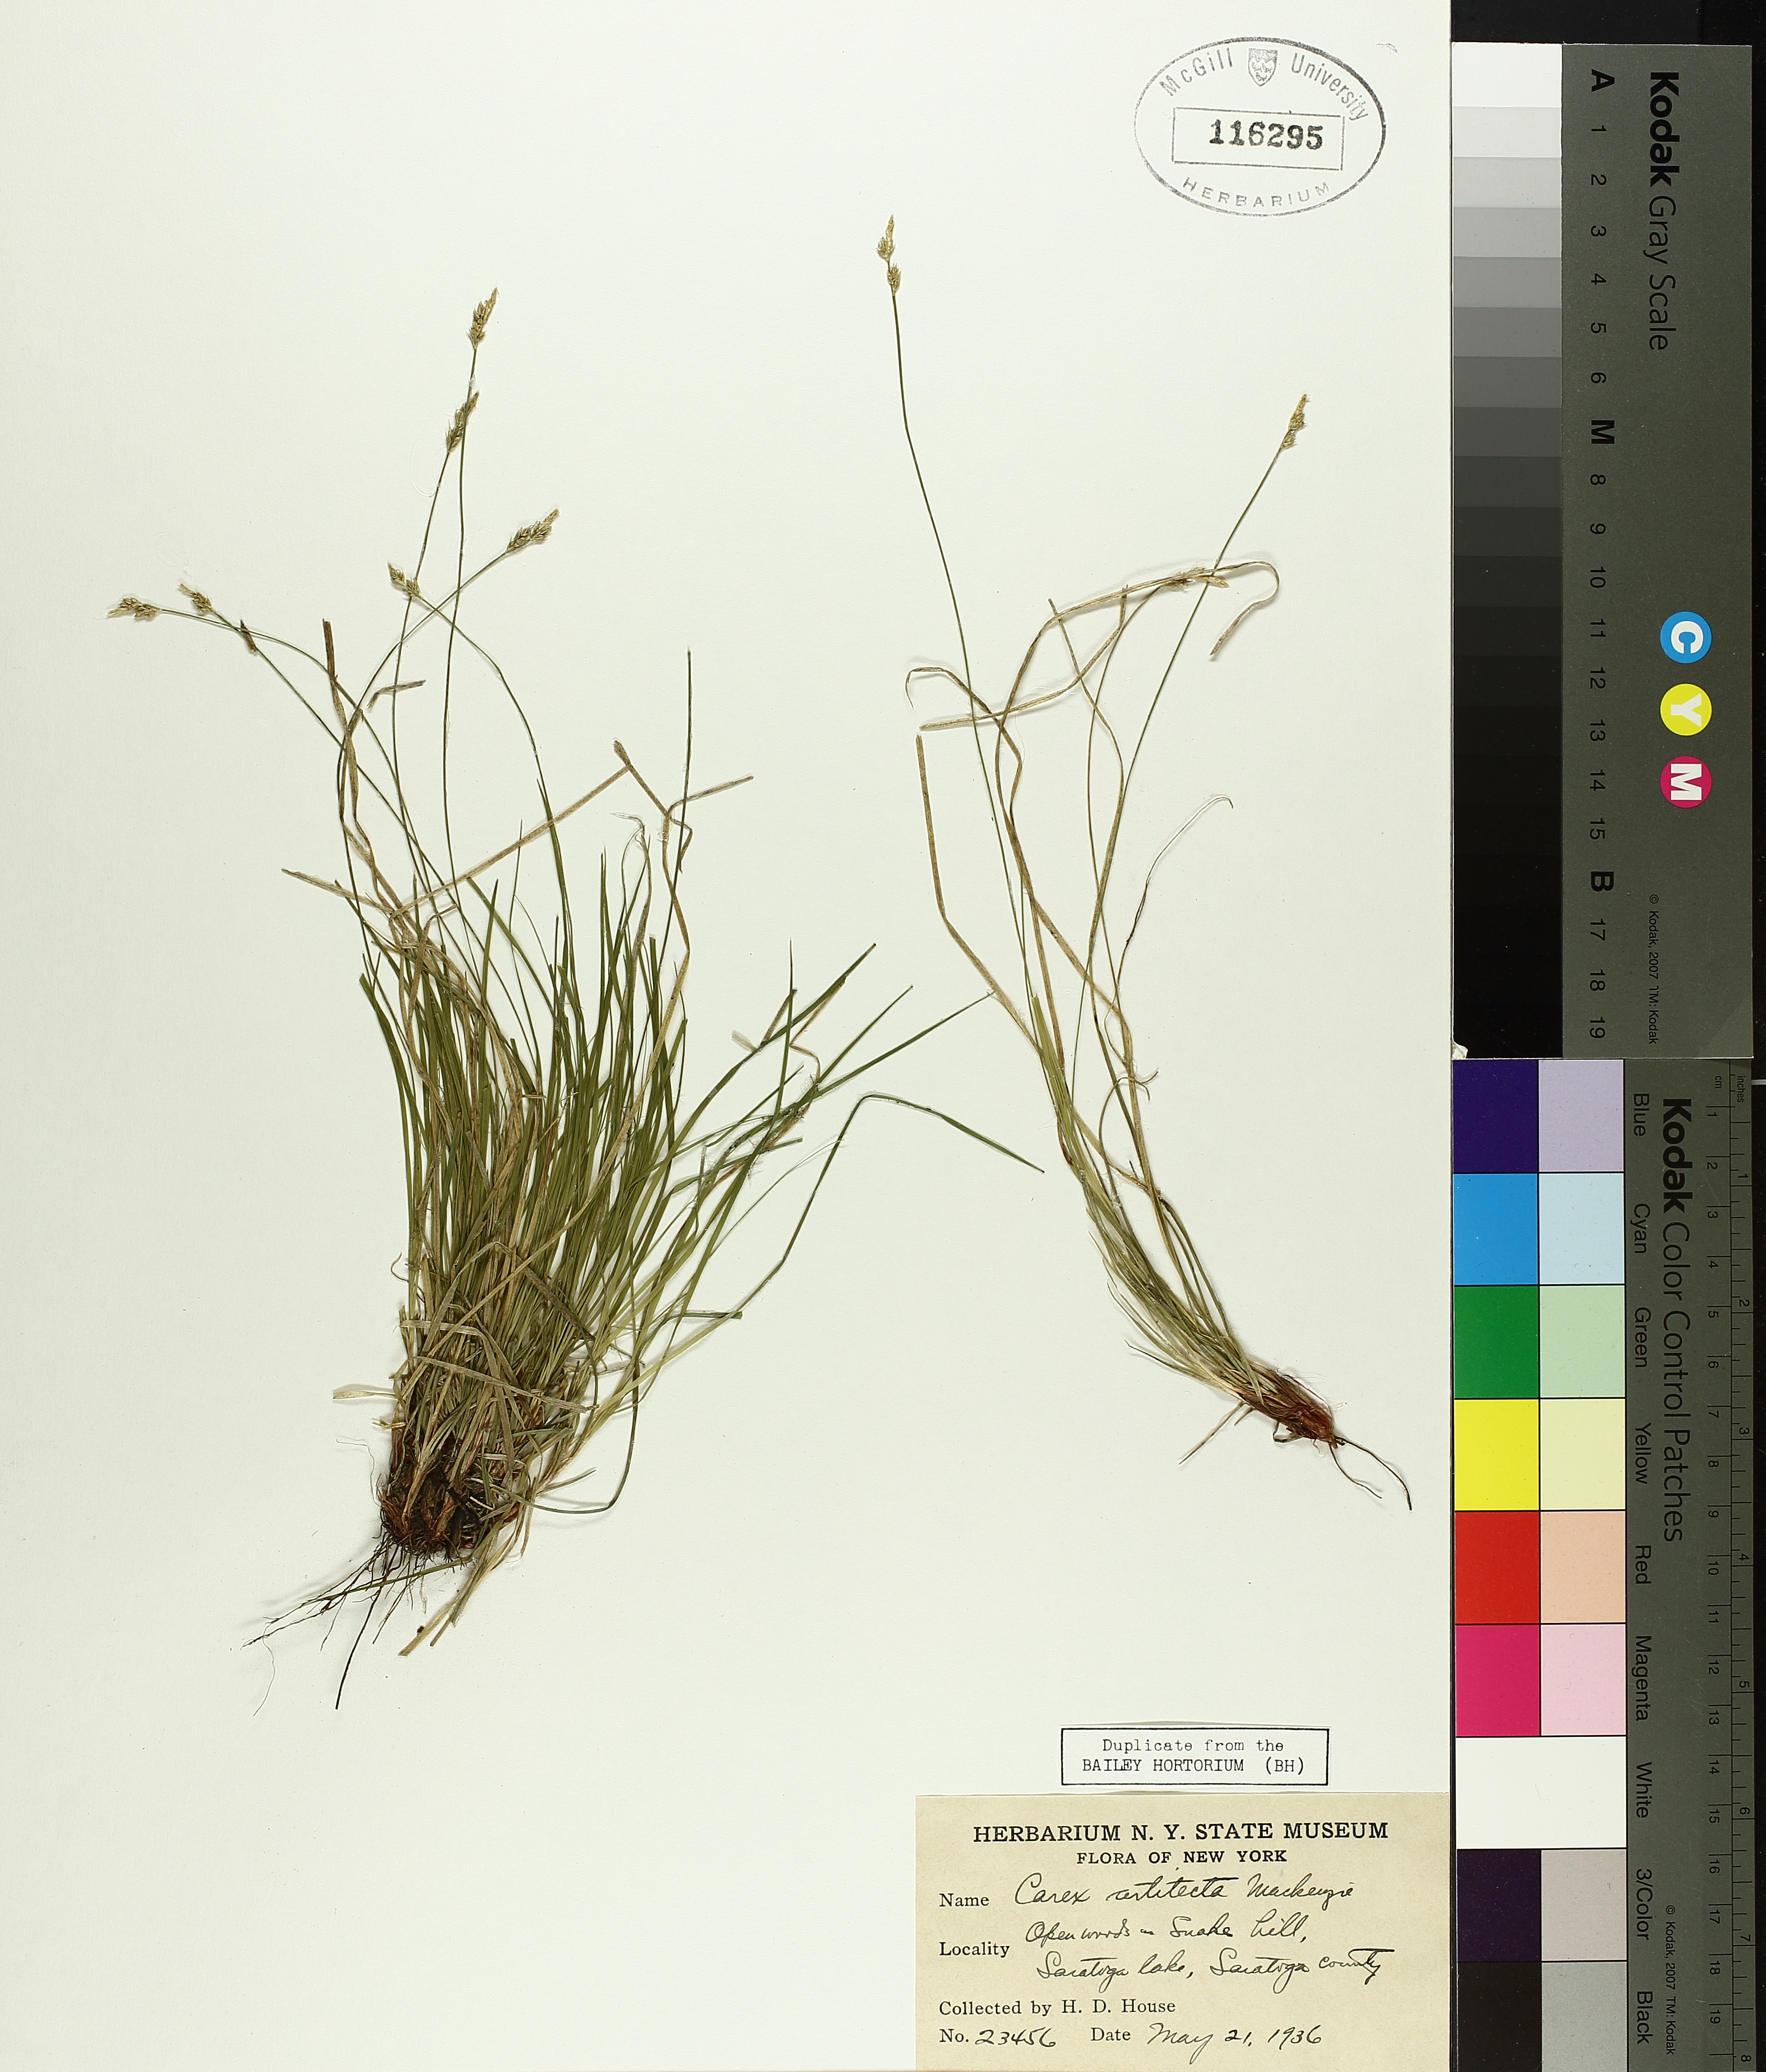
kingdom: Plantae
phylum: Tracheophyta
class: Liliopsida
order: Poales
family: Cyperaceae
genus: Carex
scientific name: Carex albicans
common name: Bellow-beaked sedge
